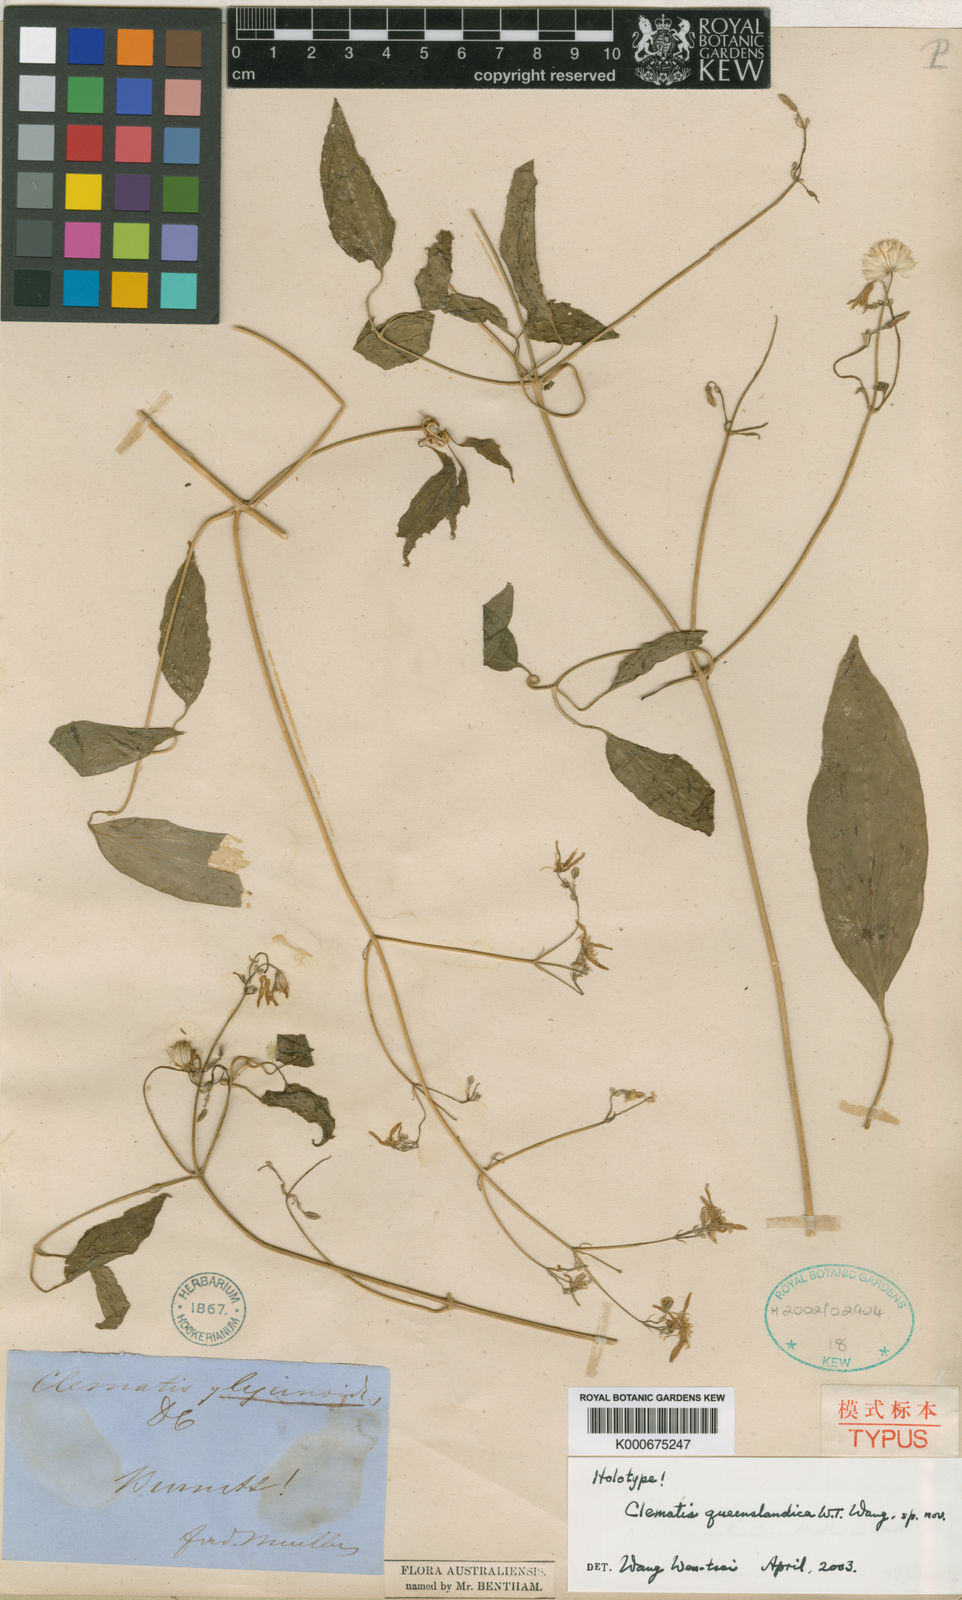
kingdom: Plantae
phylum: Tracheophyta
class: Magnoliopsida
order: Ranunculales
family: Ranunculaceae
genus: Clematis
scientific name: Clematis pickeringii
